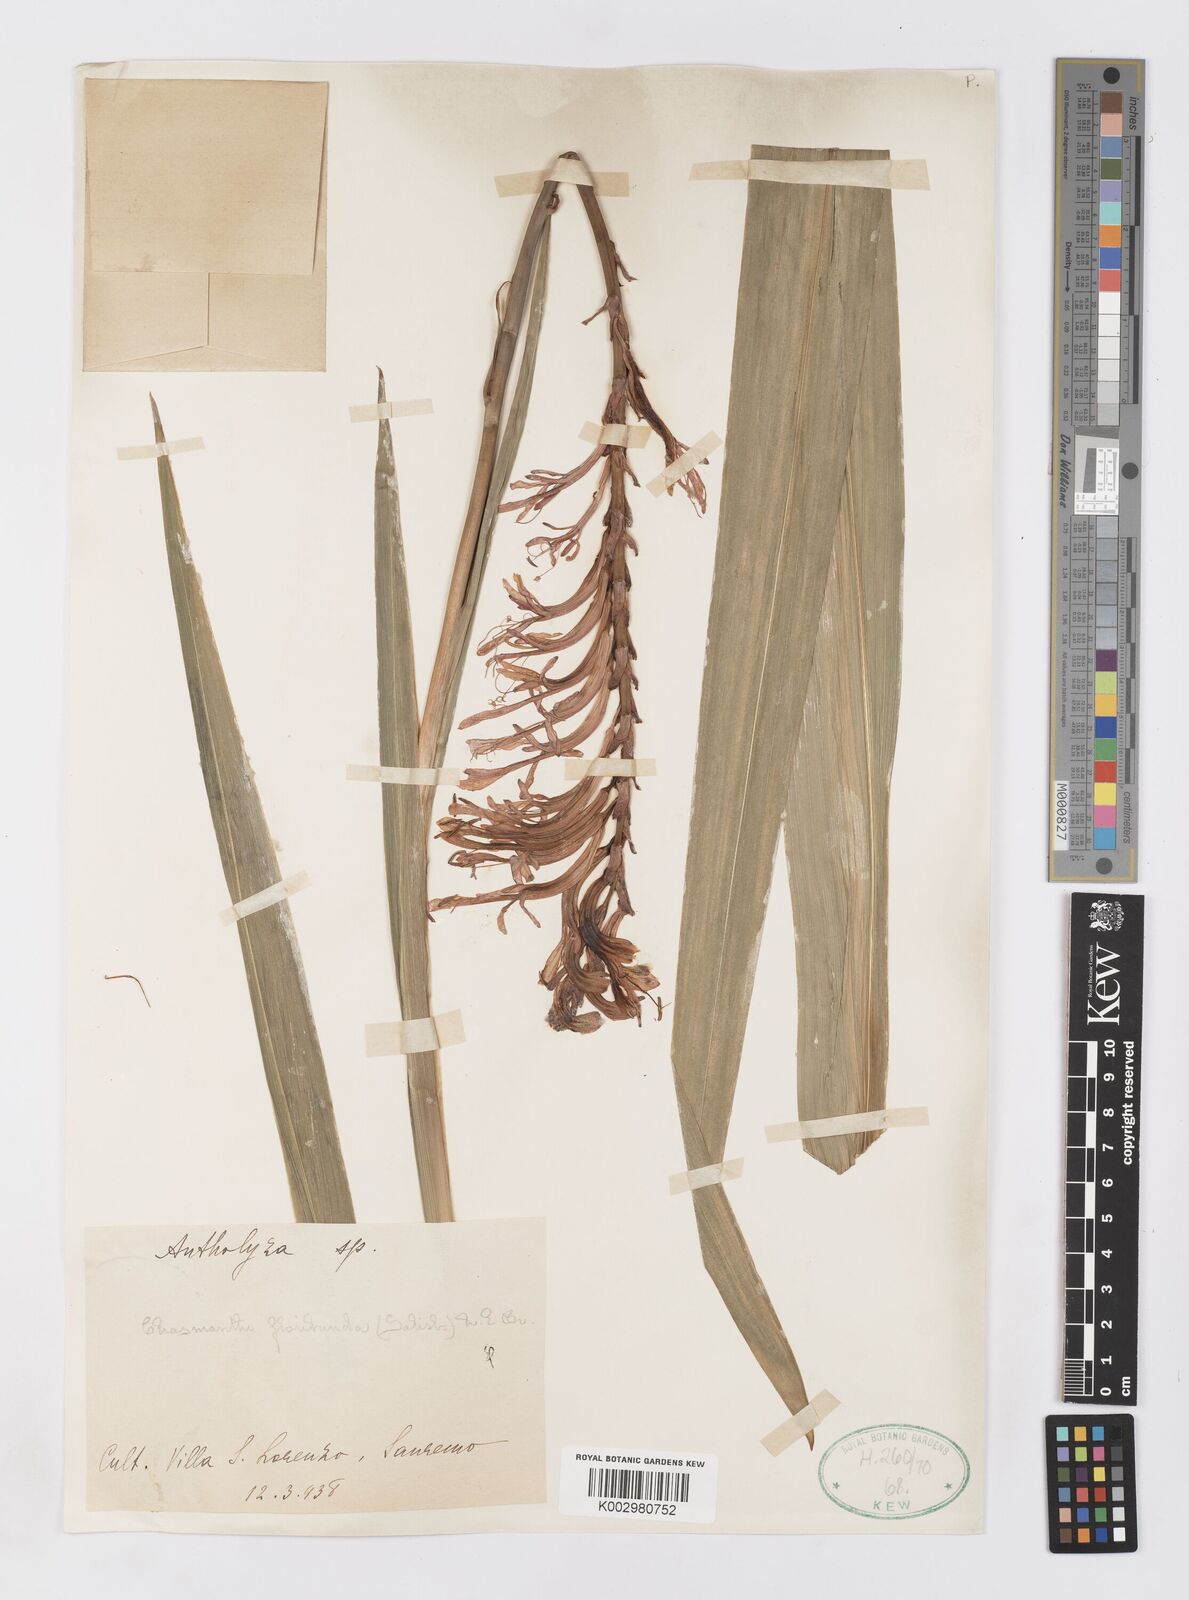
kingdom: Plantae
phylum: Tracheophyta
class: Liliopsida
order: Asparagales
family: Iridaceae
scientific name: Iridaceae
